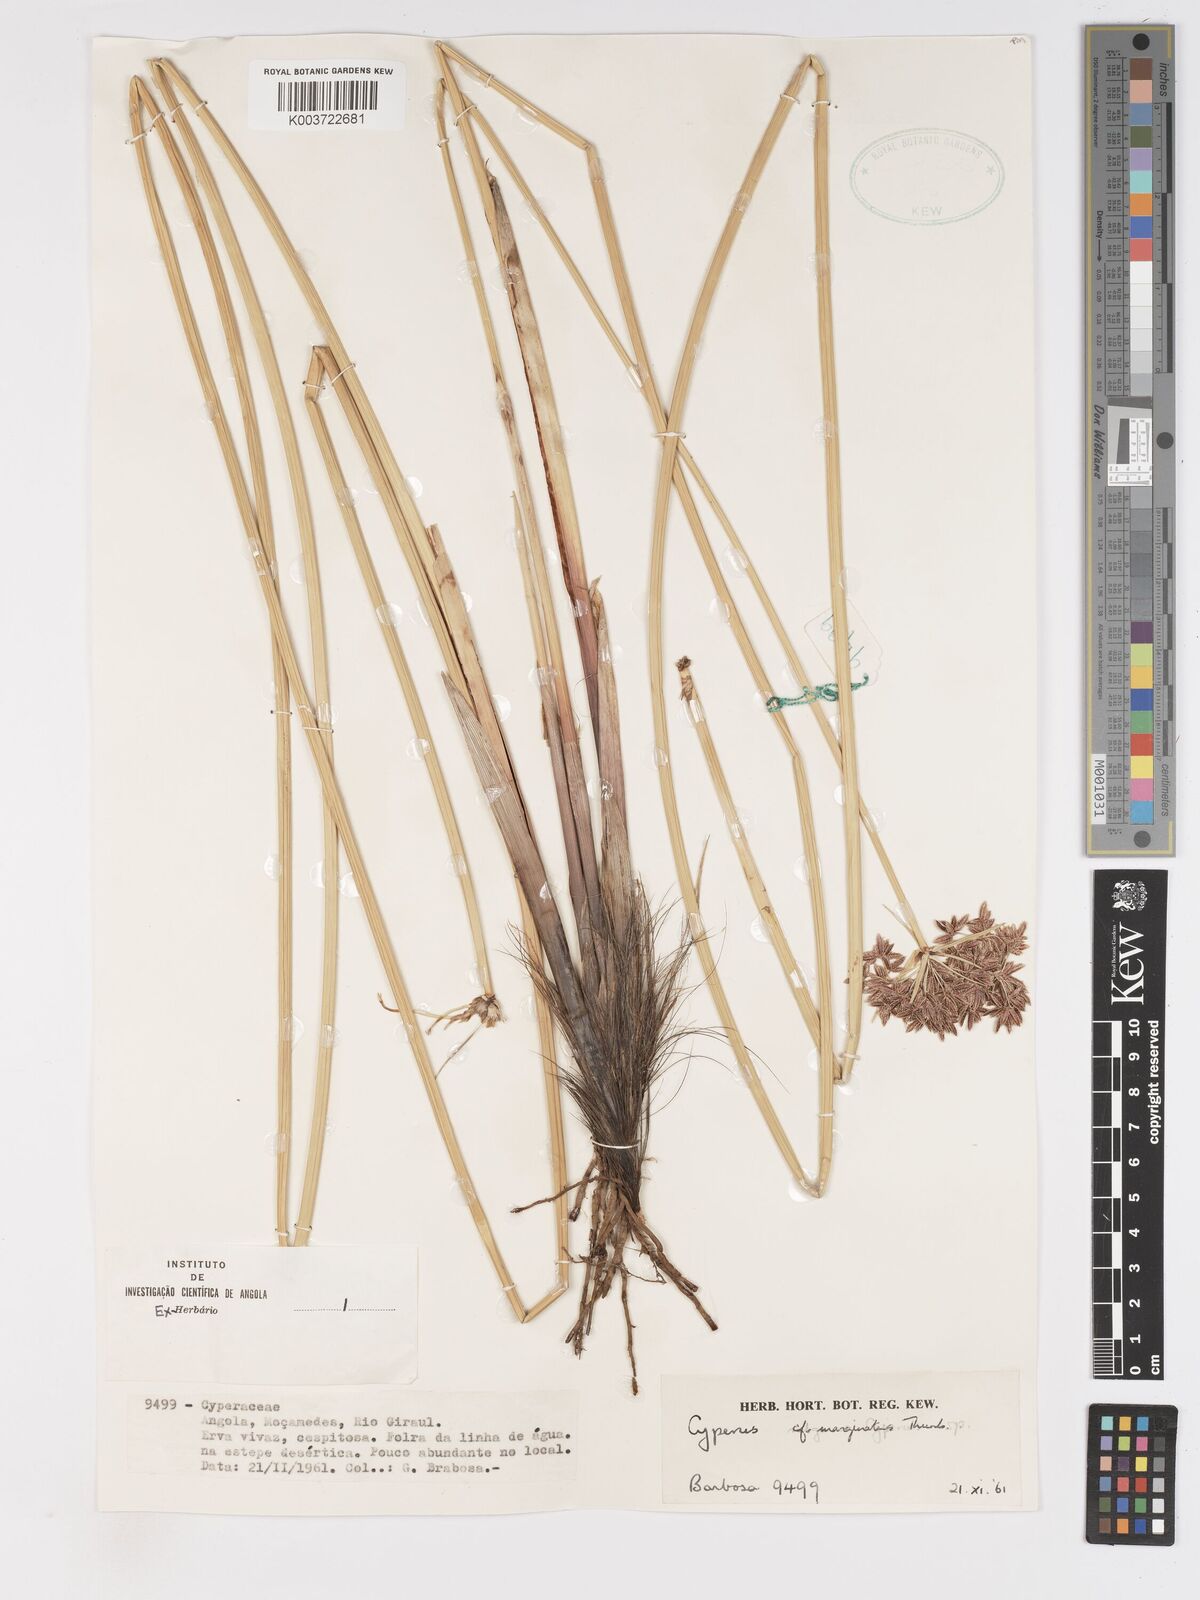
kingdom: Plantae
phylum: Tracheophyta
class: Liliopsida
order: Poales
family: Cyperaceae
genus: Cyperus
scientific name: Cyperus marginatus
